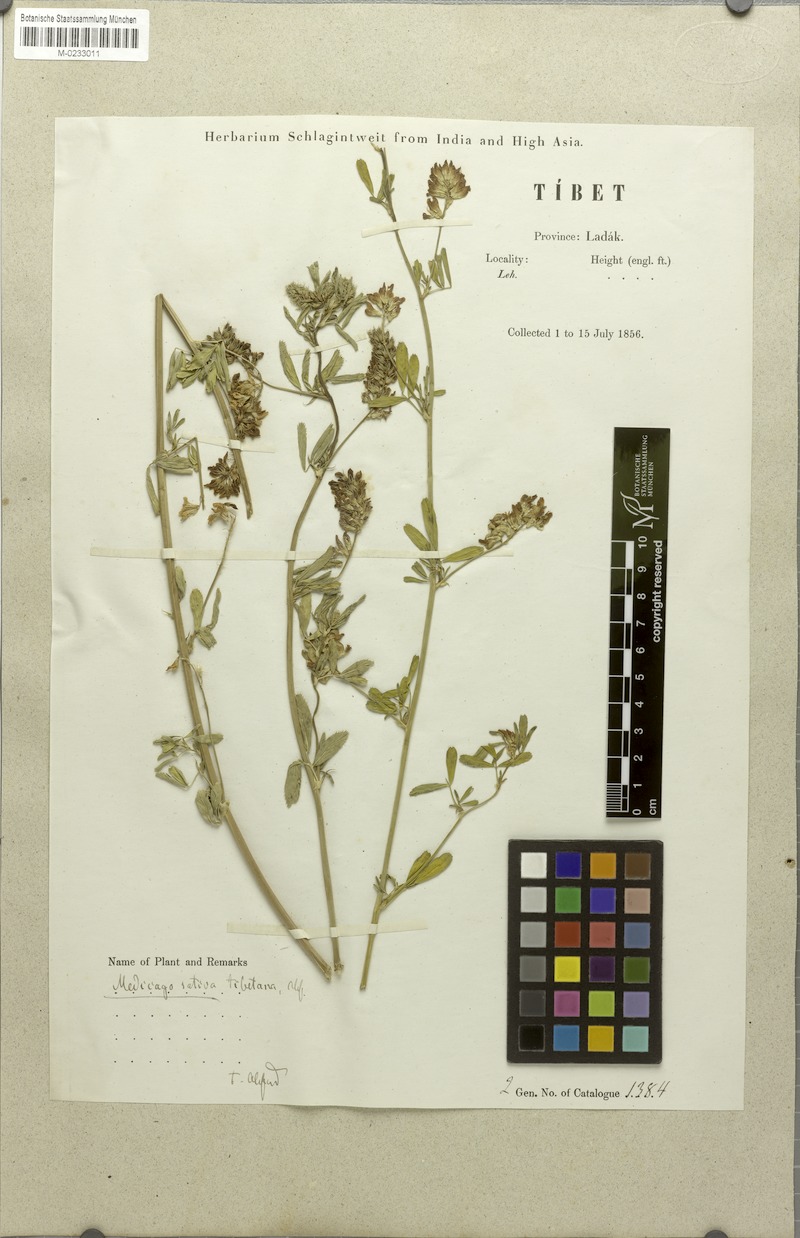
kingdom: Plantae
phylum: Tracheophyta
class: Magnoliopsida
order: Fabales
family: Fabaceae
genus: Medicago
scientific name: Medicago sativa
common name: Alfalfa
